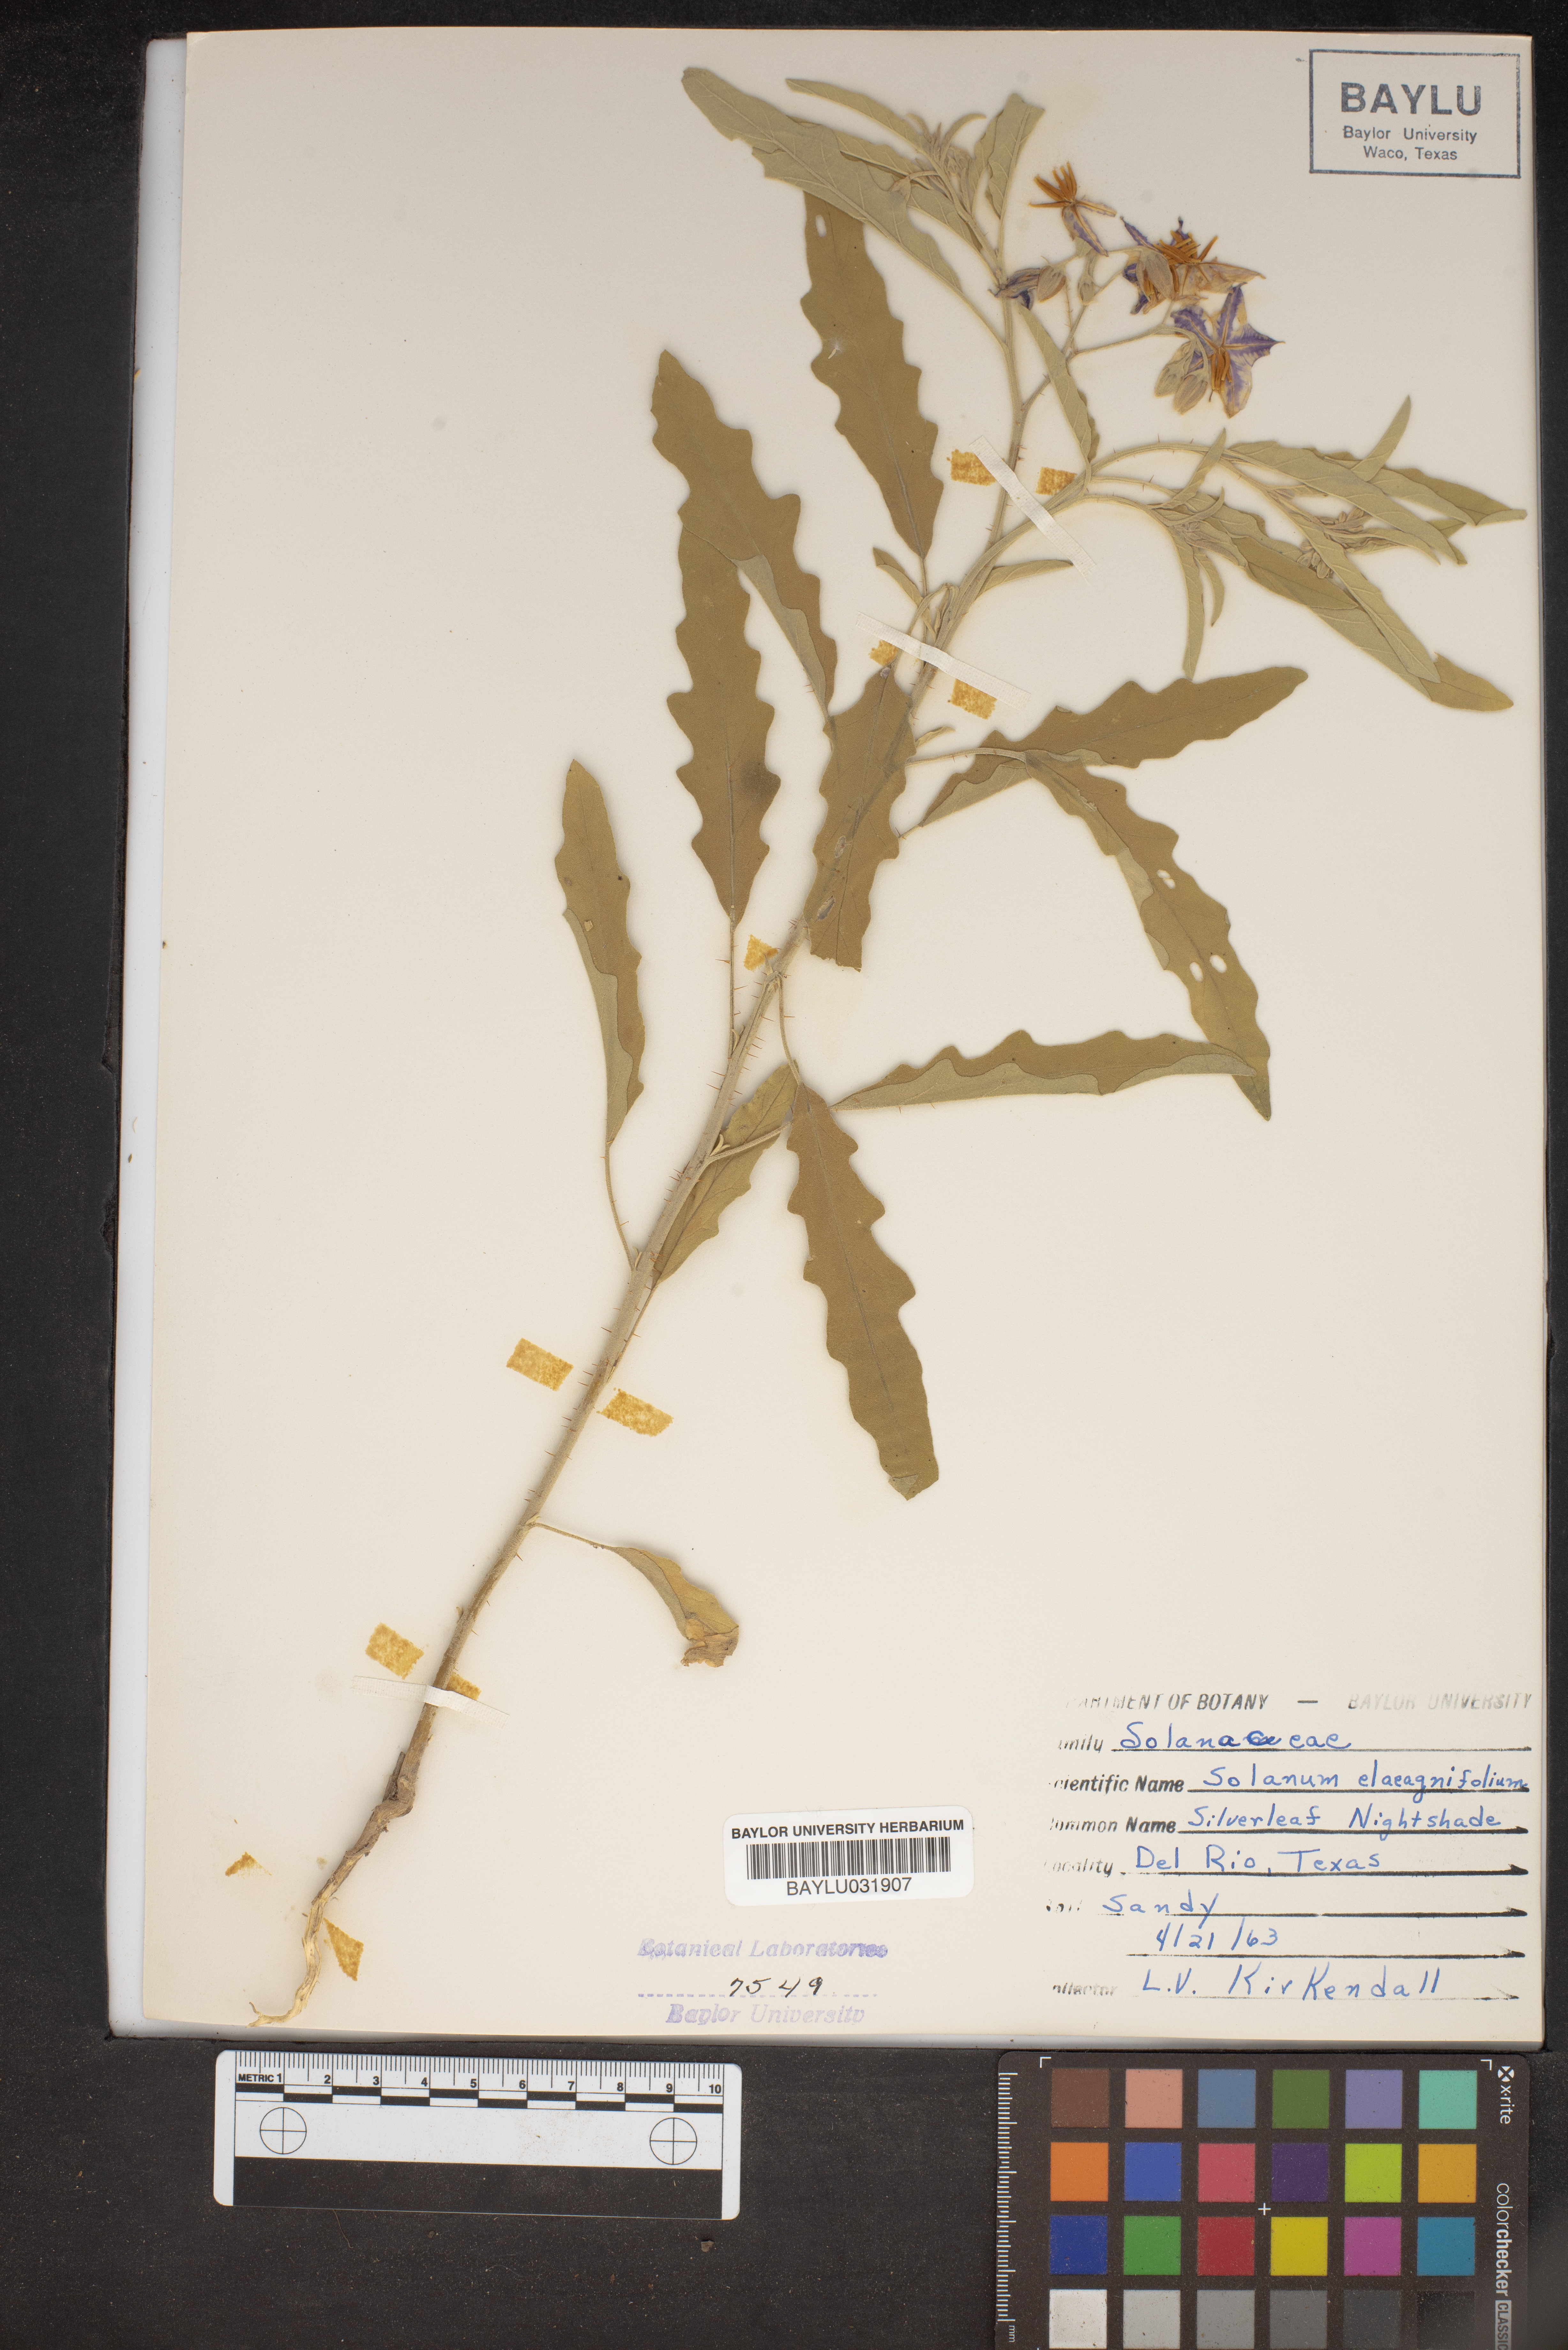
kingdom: Plantae
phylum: Tracheophyta
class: Magnoliopsida
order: Solanales
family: Solanaceae
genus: Solanum
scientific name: Solanum elaeagnifolium
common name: Silverleaf nightshade
